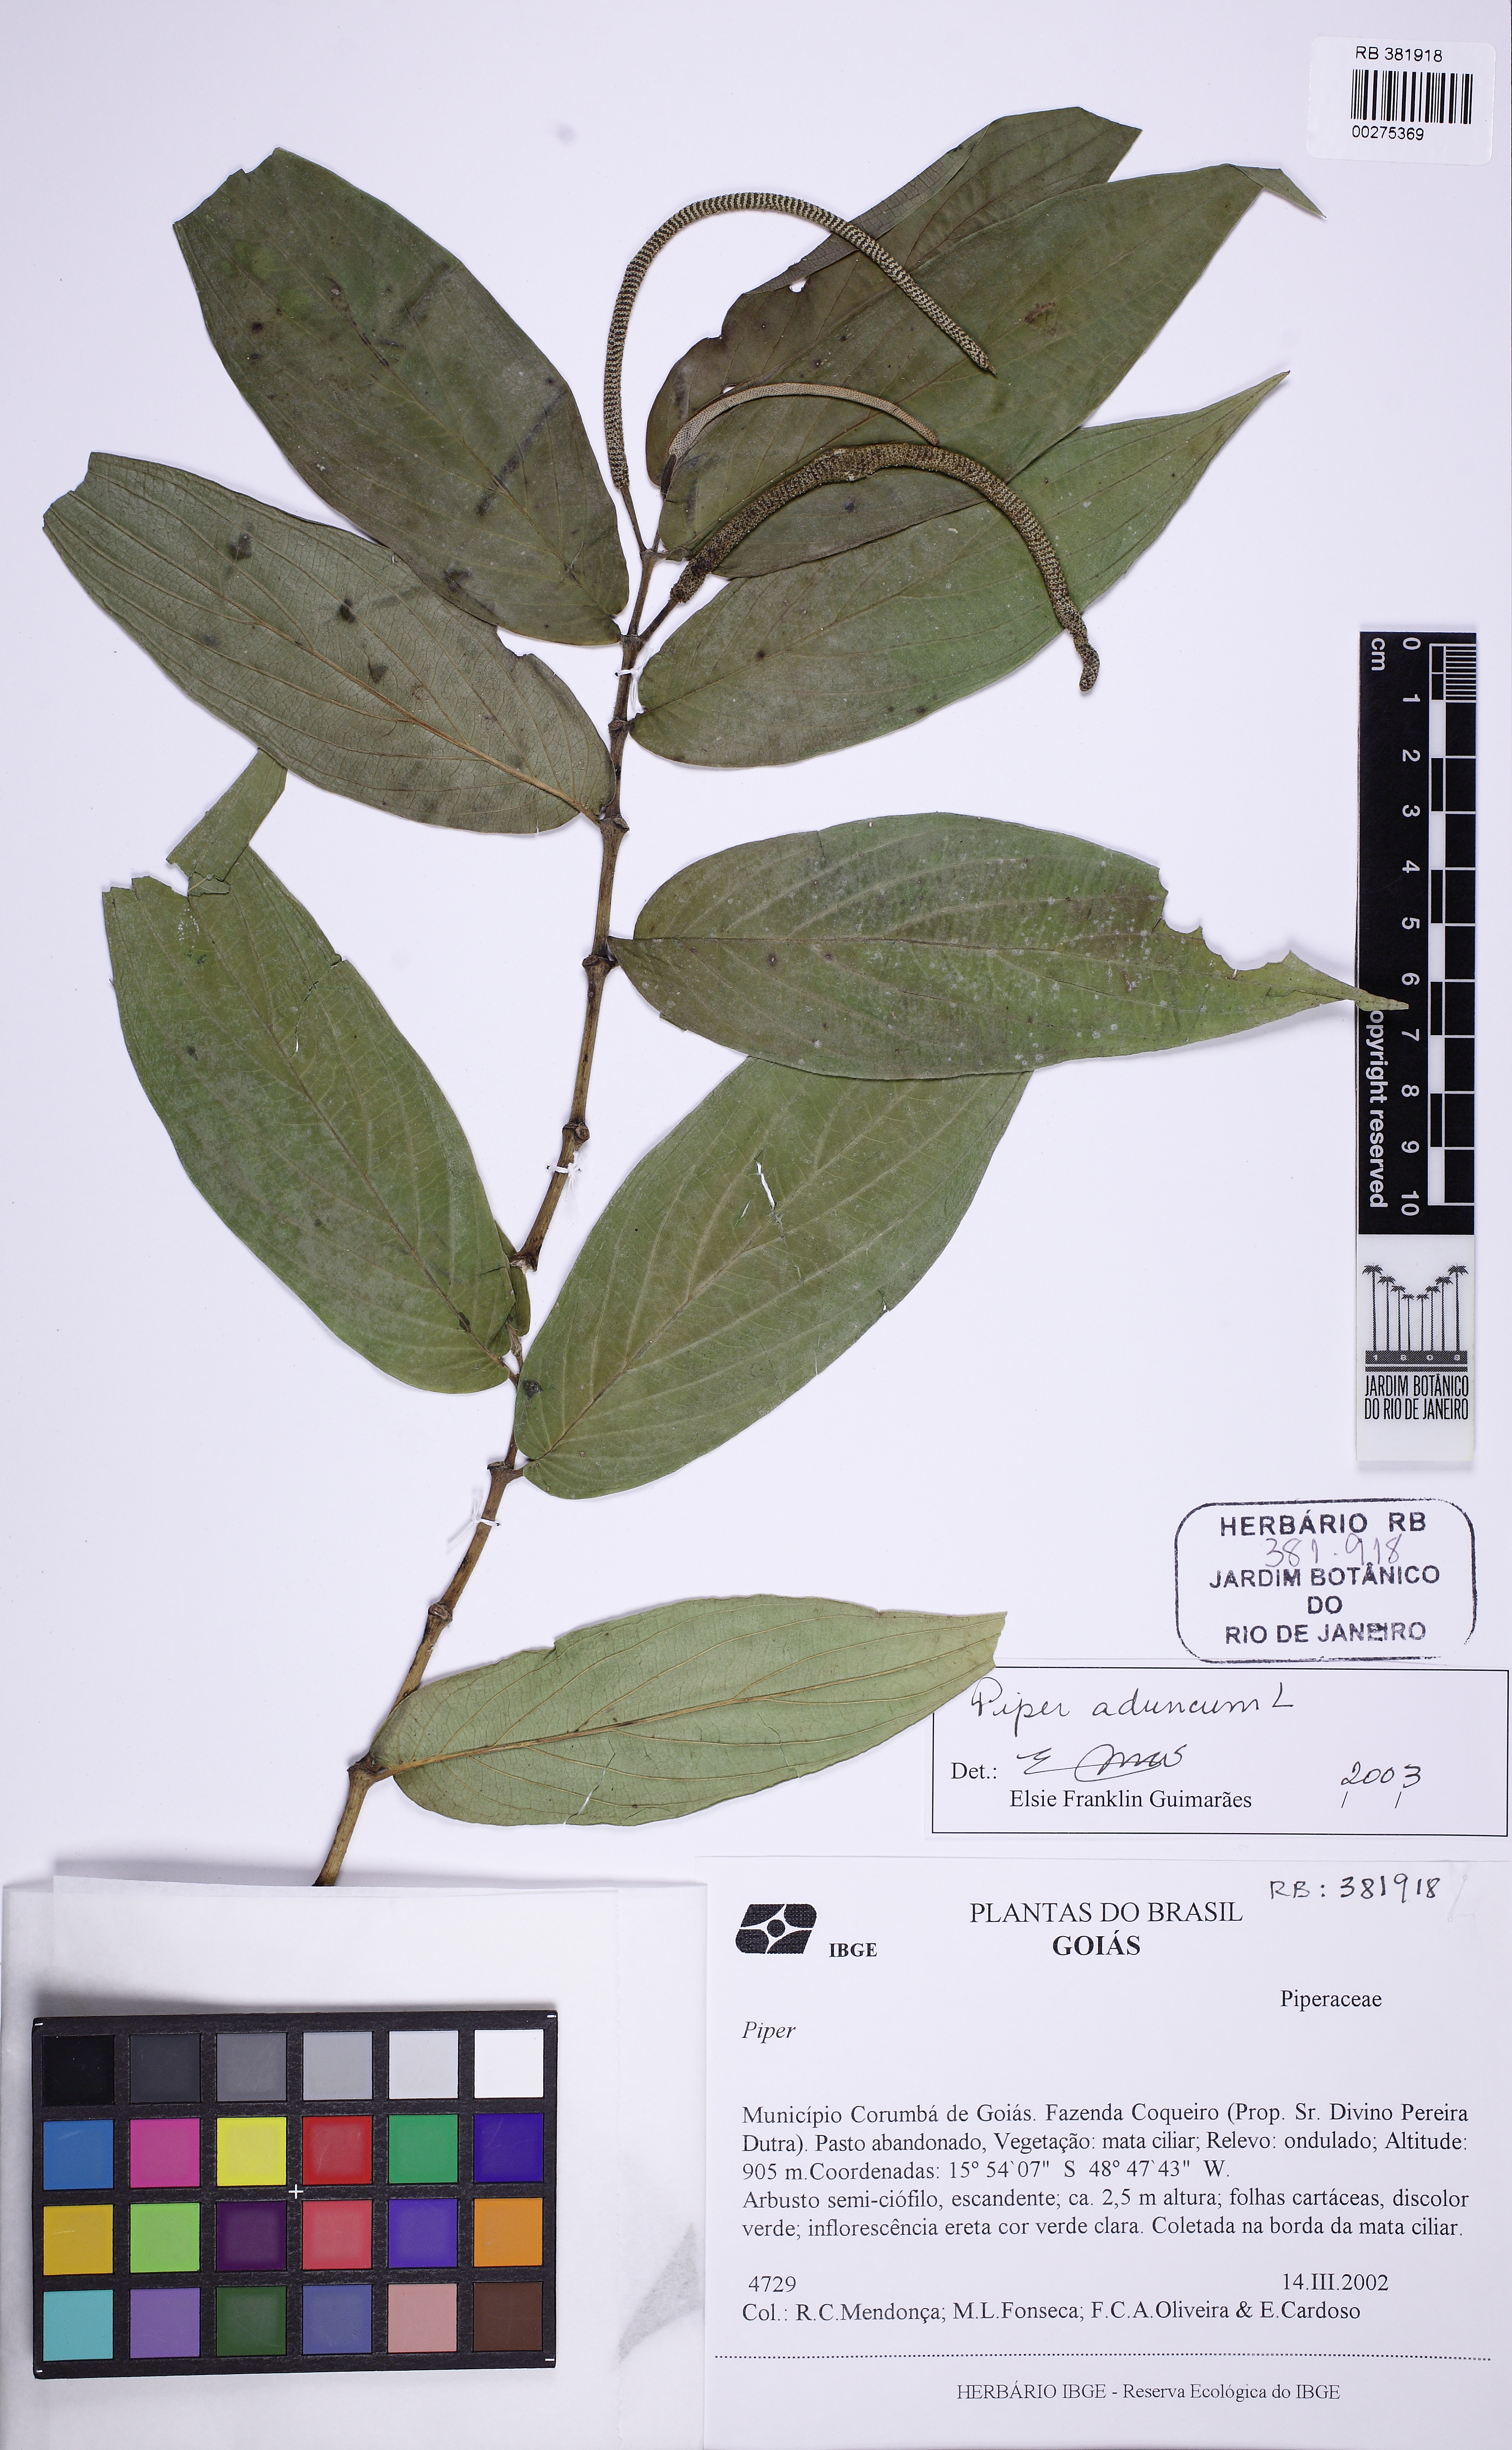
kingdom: Plantae
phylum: Tracheophyta
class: Magnoliopsida
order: Piperales
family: Piperaceae
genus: Piper
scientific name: Piper aduncum
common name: Spiked pepper
